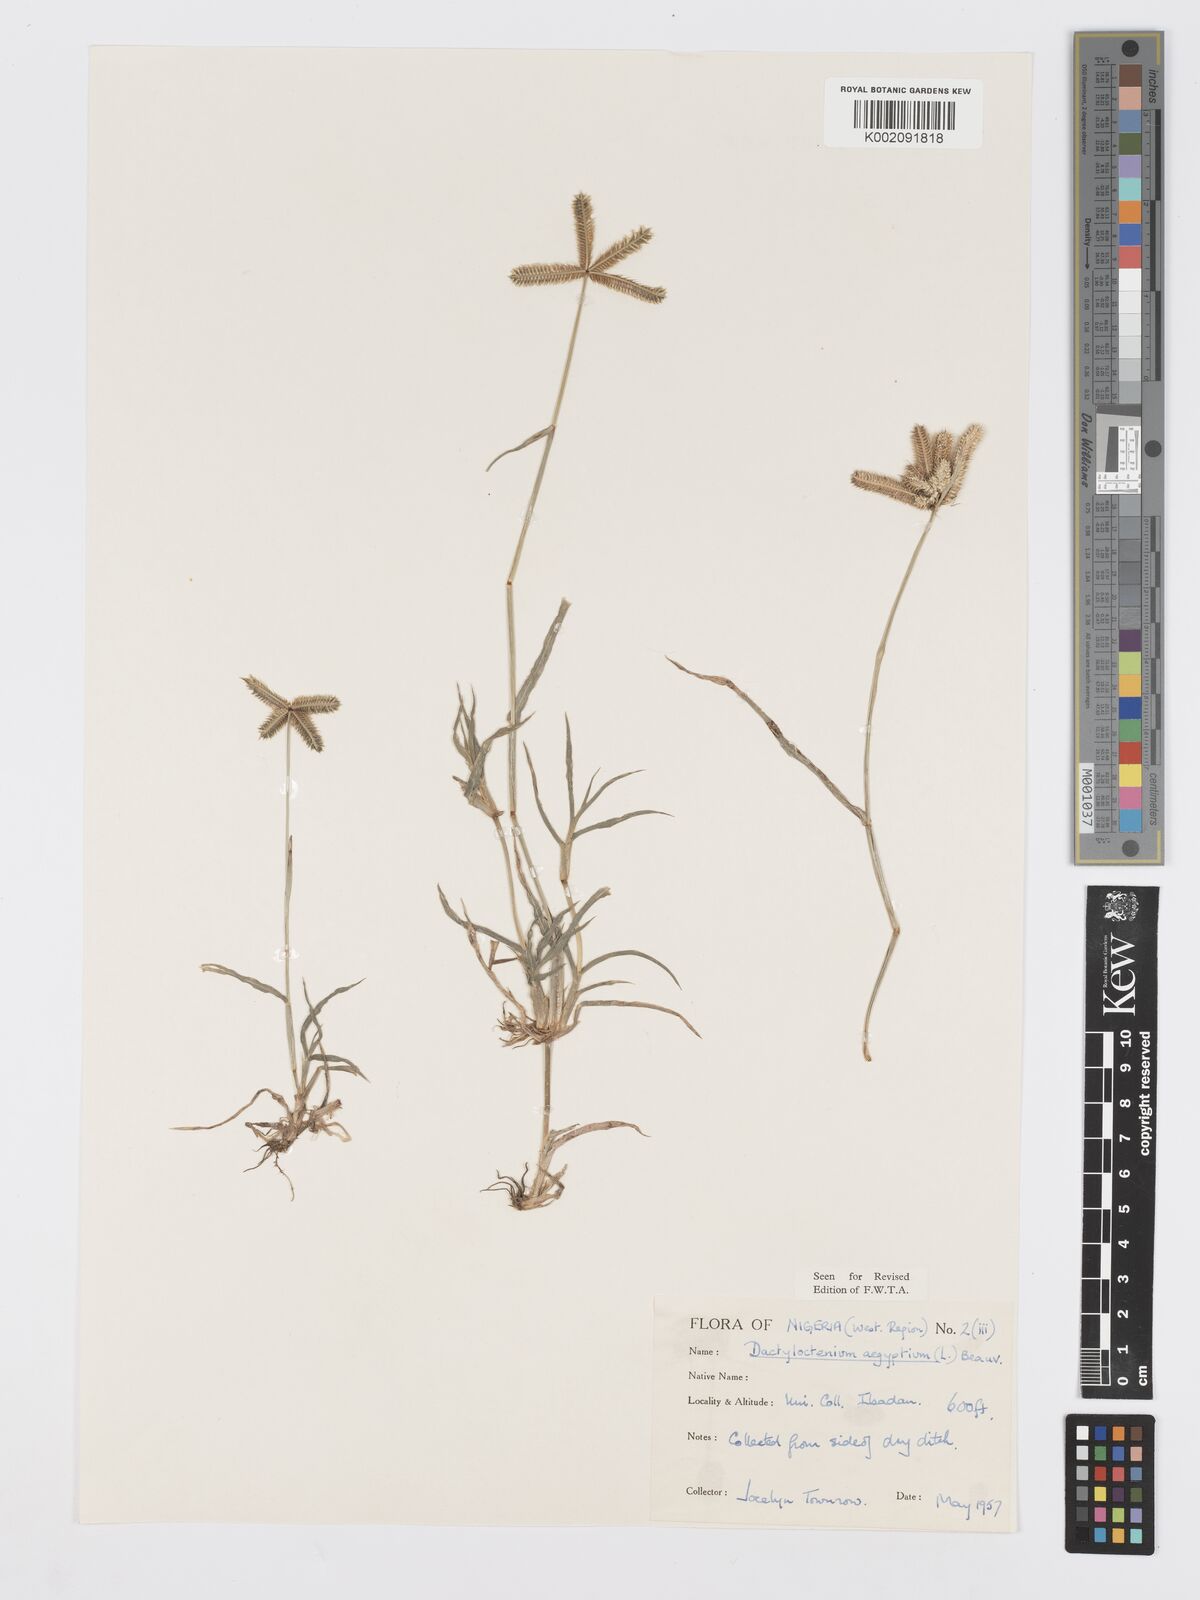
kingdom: Plantae
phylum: Tracheophyta
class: Liliopsida
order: Poales
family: Poaceae
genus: Dactyloctenium
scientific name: Dactyloctenium aegyptium
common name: Egyptian grass
